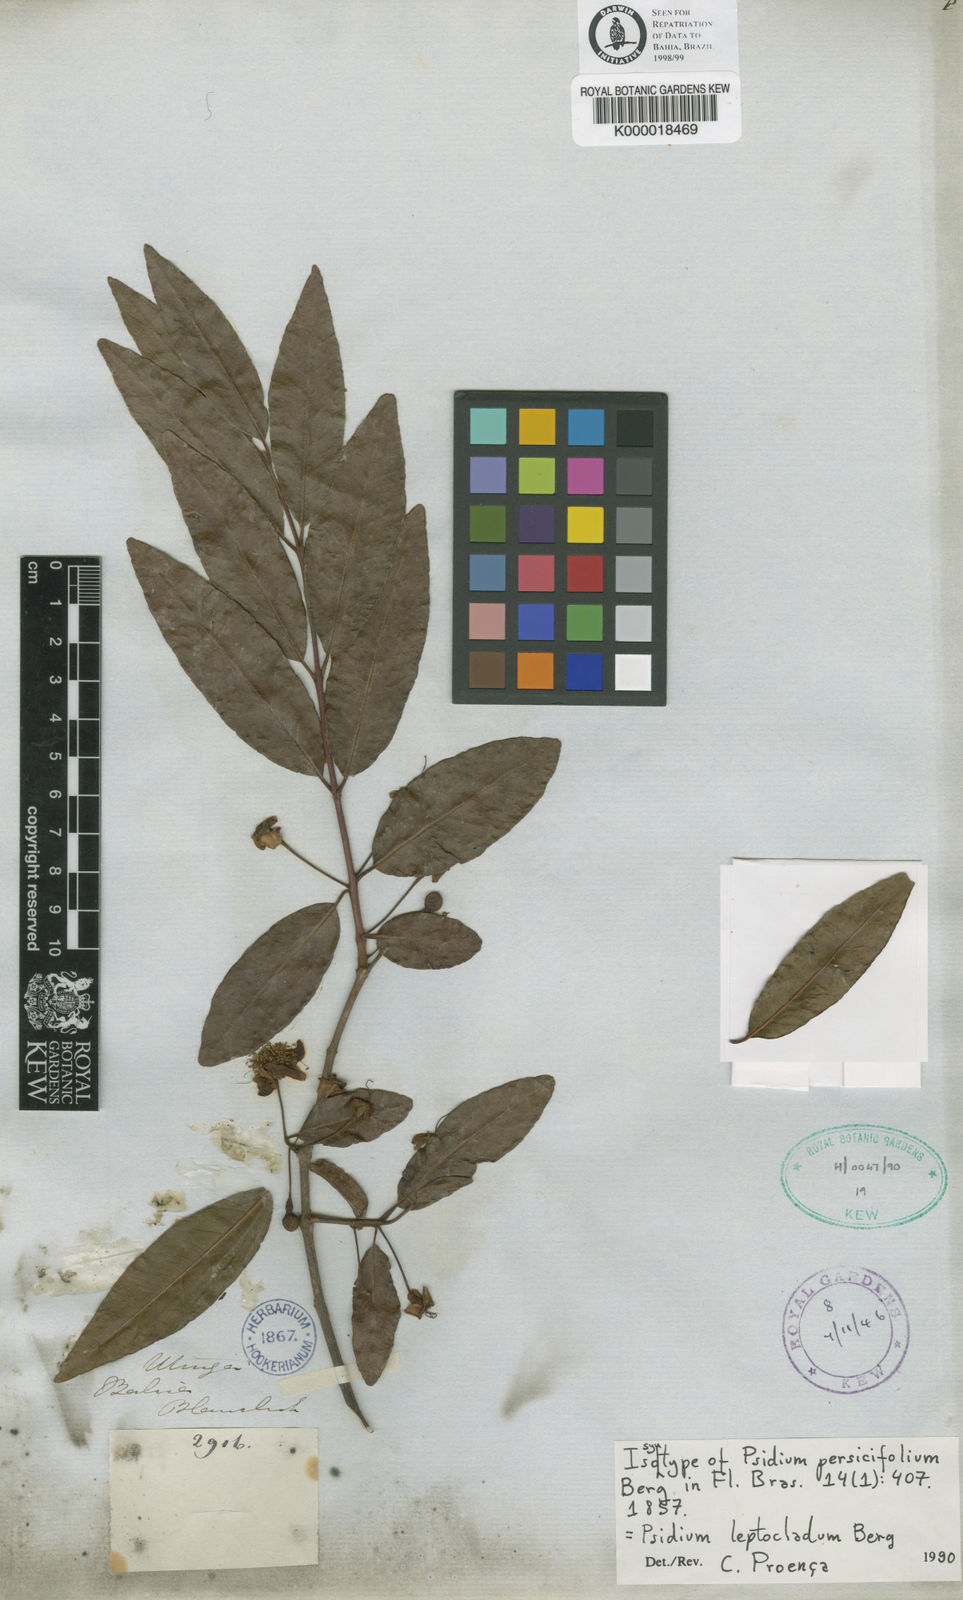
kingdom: Plantae
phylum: Tracheophyta
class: Magnoliopsida
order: Myrtales
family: Myrtaceae
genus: Psidium
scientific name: Psidium striatulum
